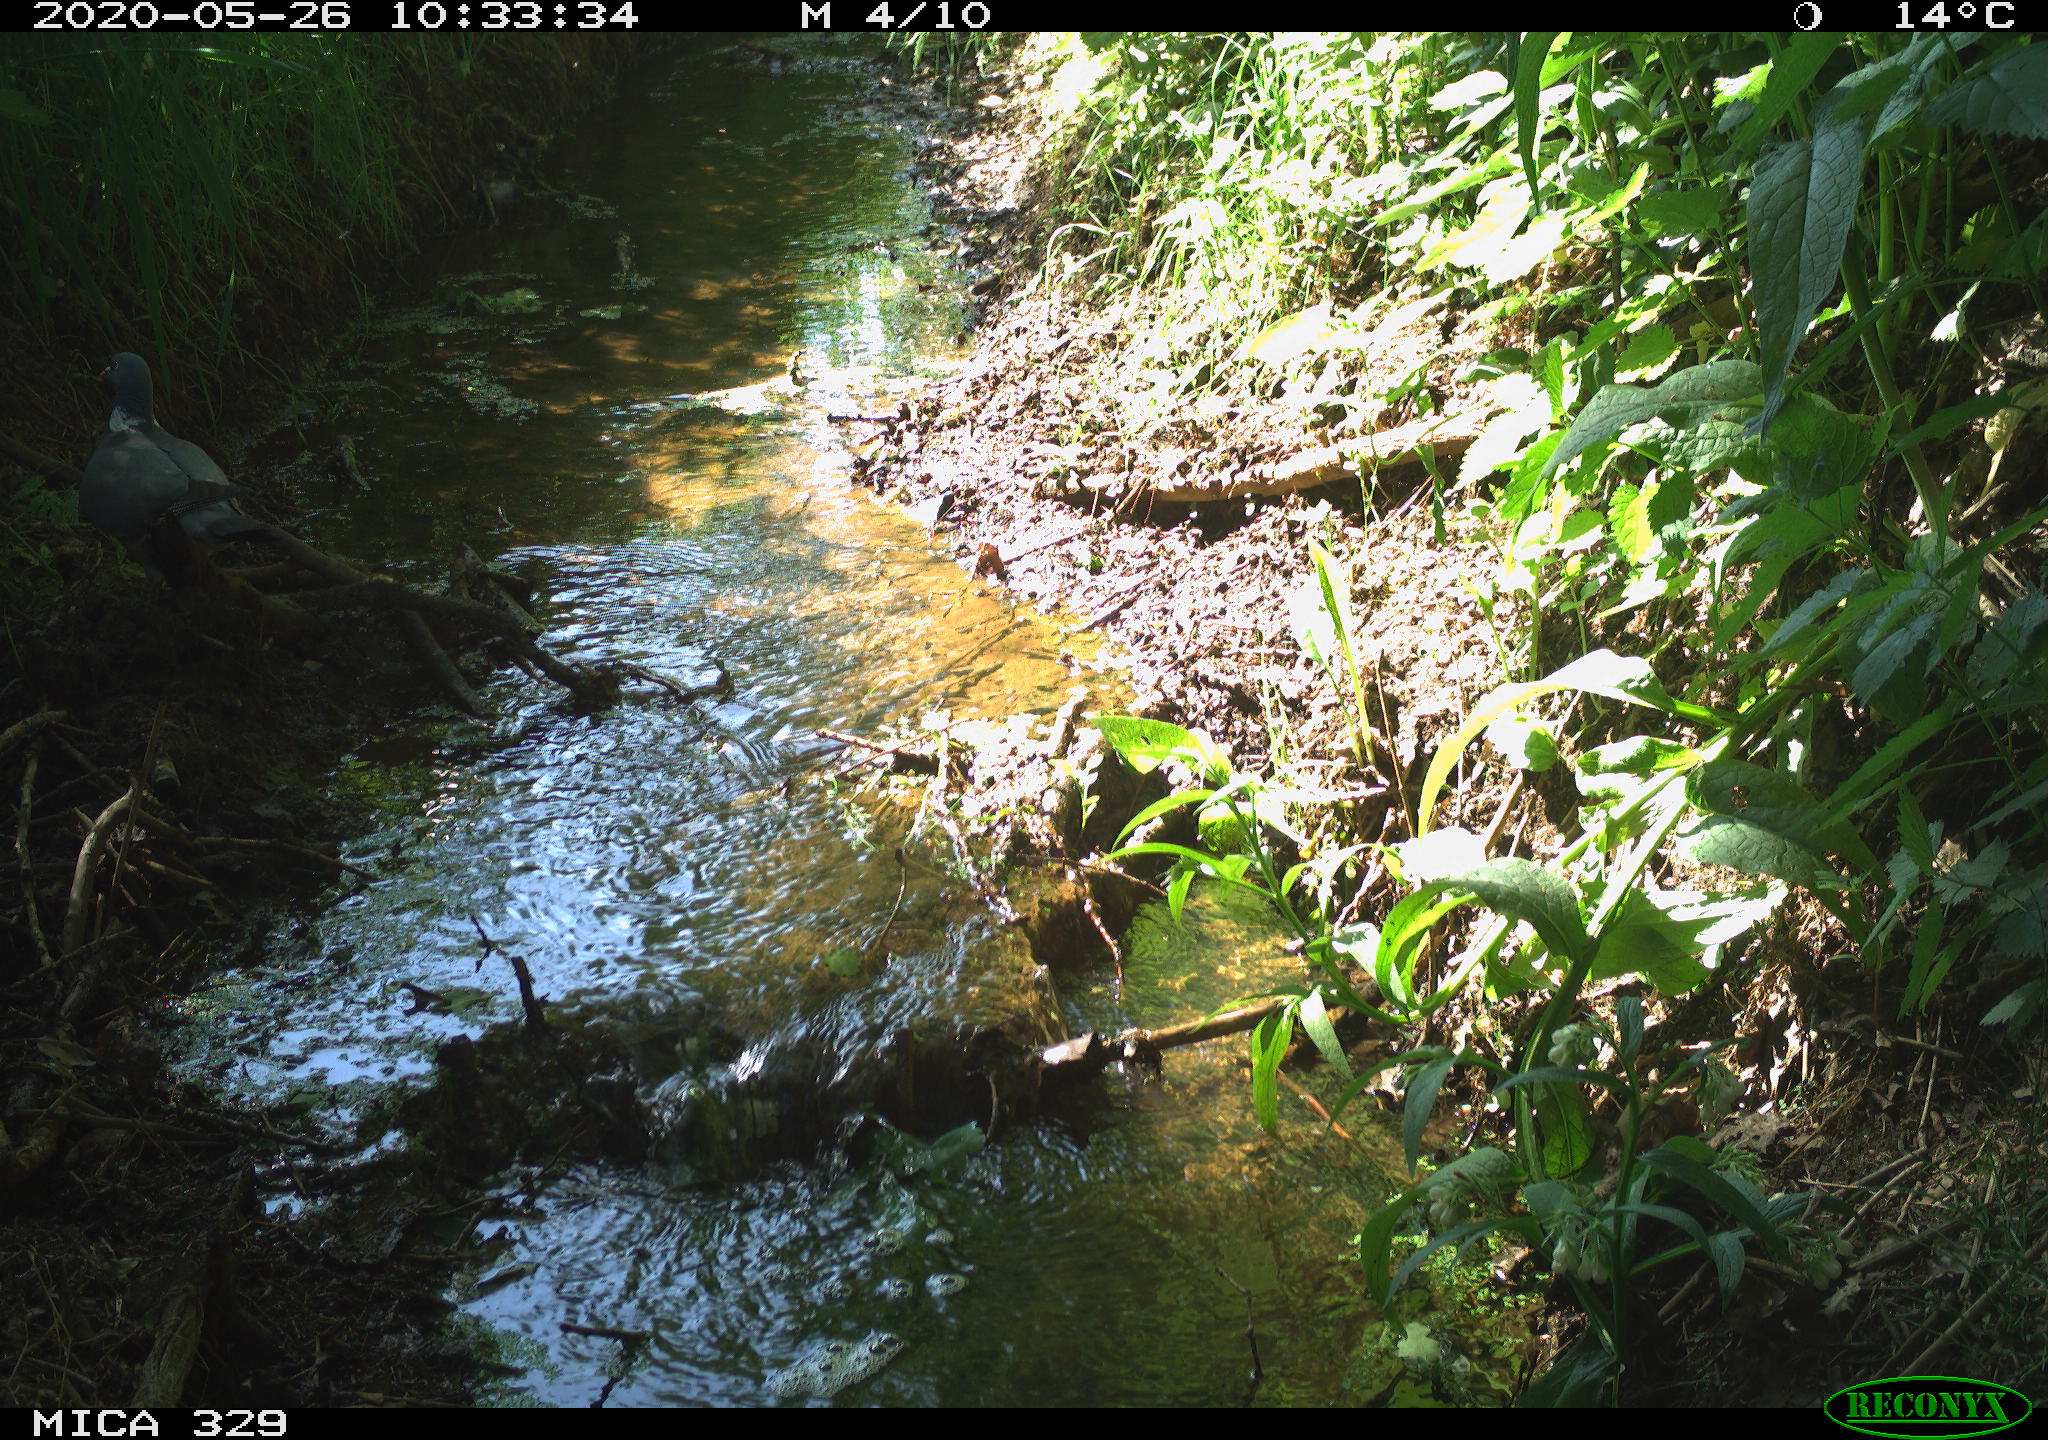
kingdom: Animalia
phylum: Chordata
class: Aves
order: Columbiformes
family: Columbidae
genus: Columba
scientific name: Columba palumbus
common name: Common wood pigeon
